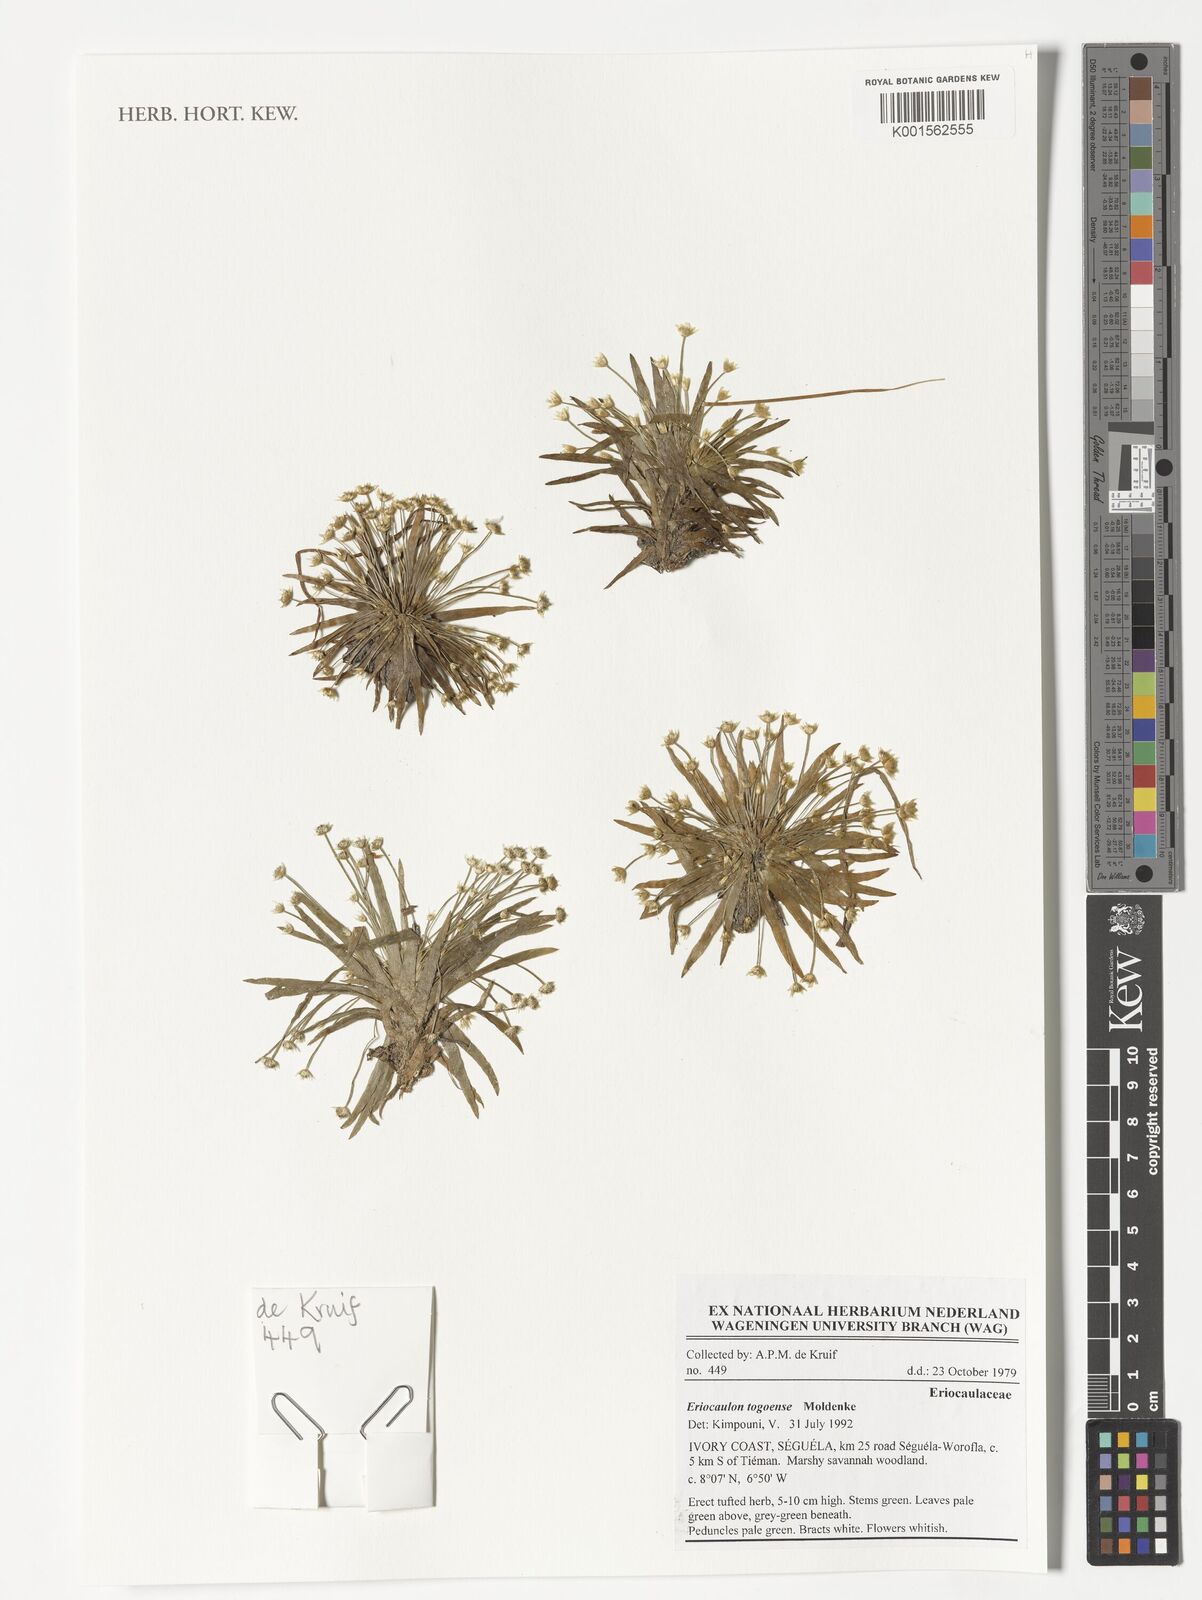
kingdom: Plantae
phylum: Tracheophyta
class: Liliopsida
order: Poales
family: Eriocaulaceae
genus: Eriocaulon
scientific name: Eriocaulon togoense
